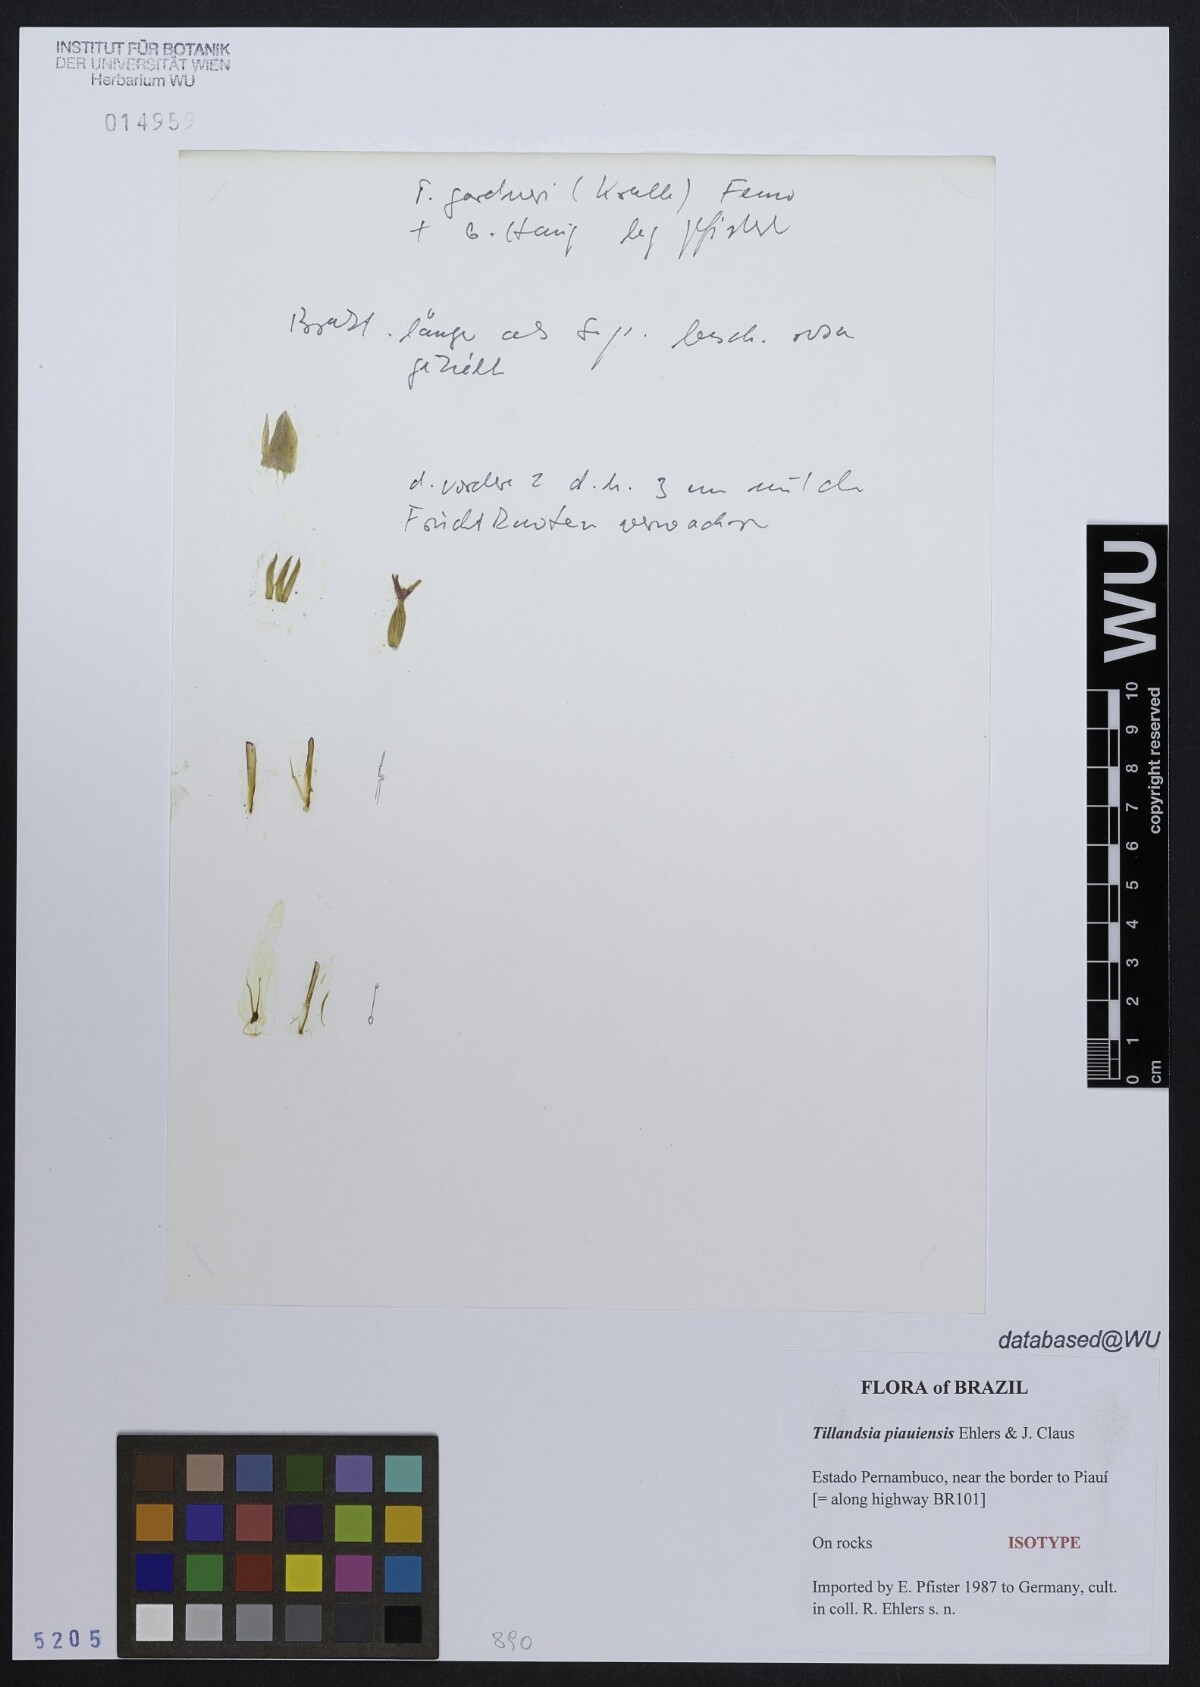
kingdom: Plantae
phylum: Tracheophyta
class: Liliopsida
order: Poales
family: Bromeliaceae
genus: Tillandsia
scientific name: Tillandsia piauiensis
